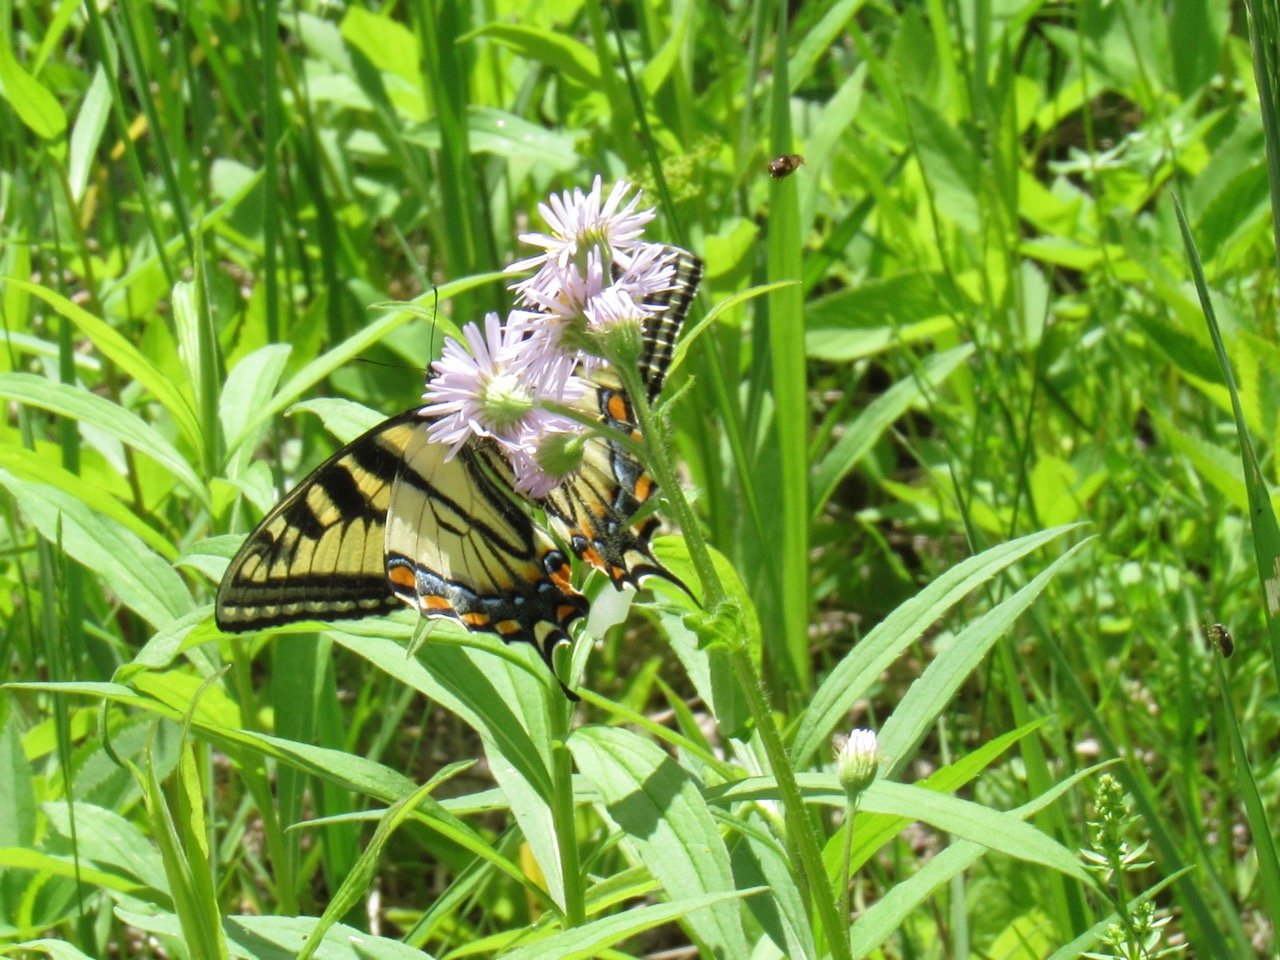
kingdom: Animalia
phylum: Arthropoda
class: Insecta
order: Lepidoptera
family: Papilionidae
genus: Pterourus
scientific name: Pterourus canadensis
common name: Canadian Tiger Swallowtail
